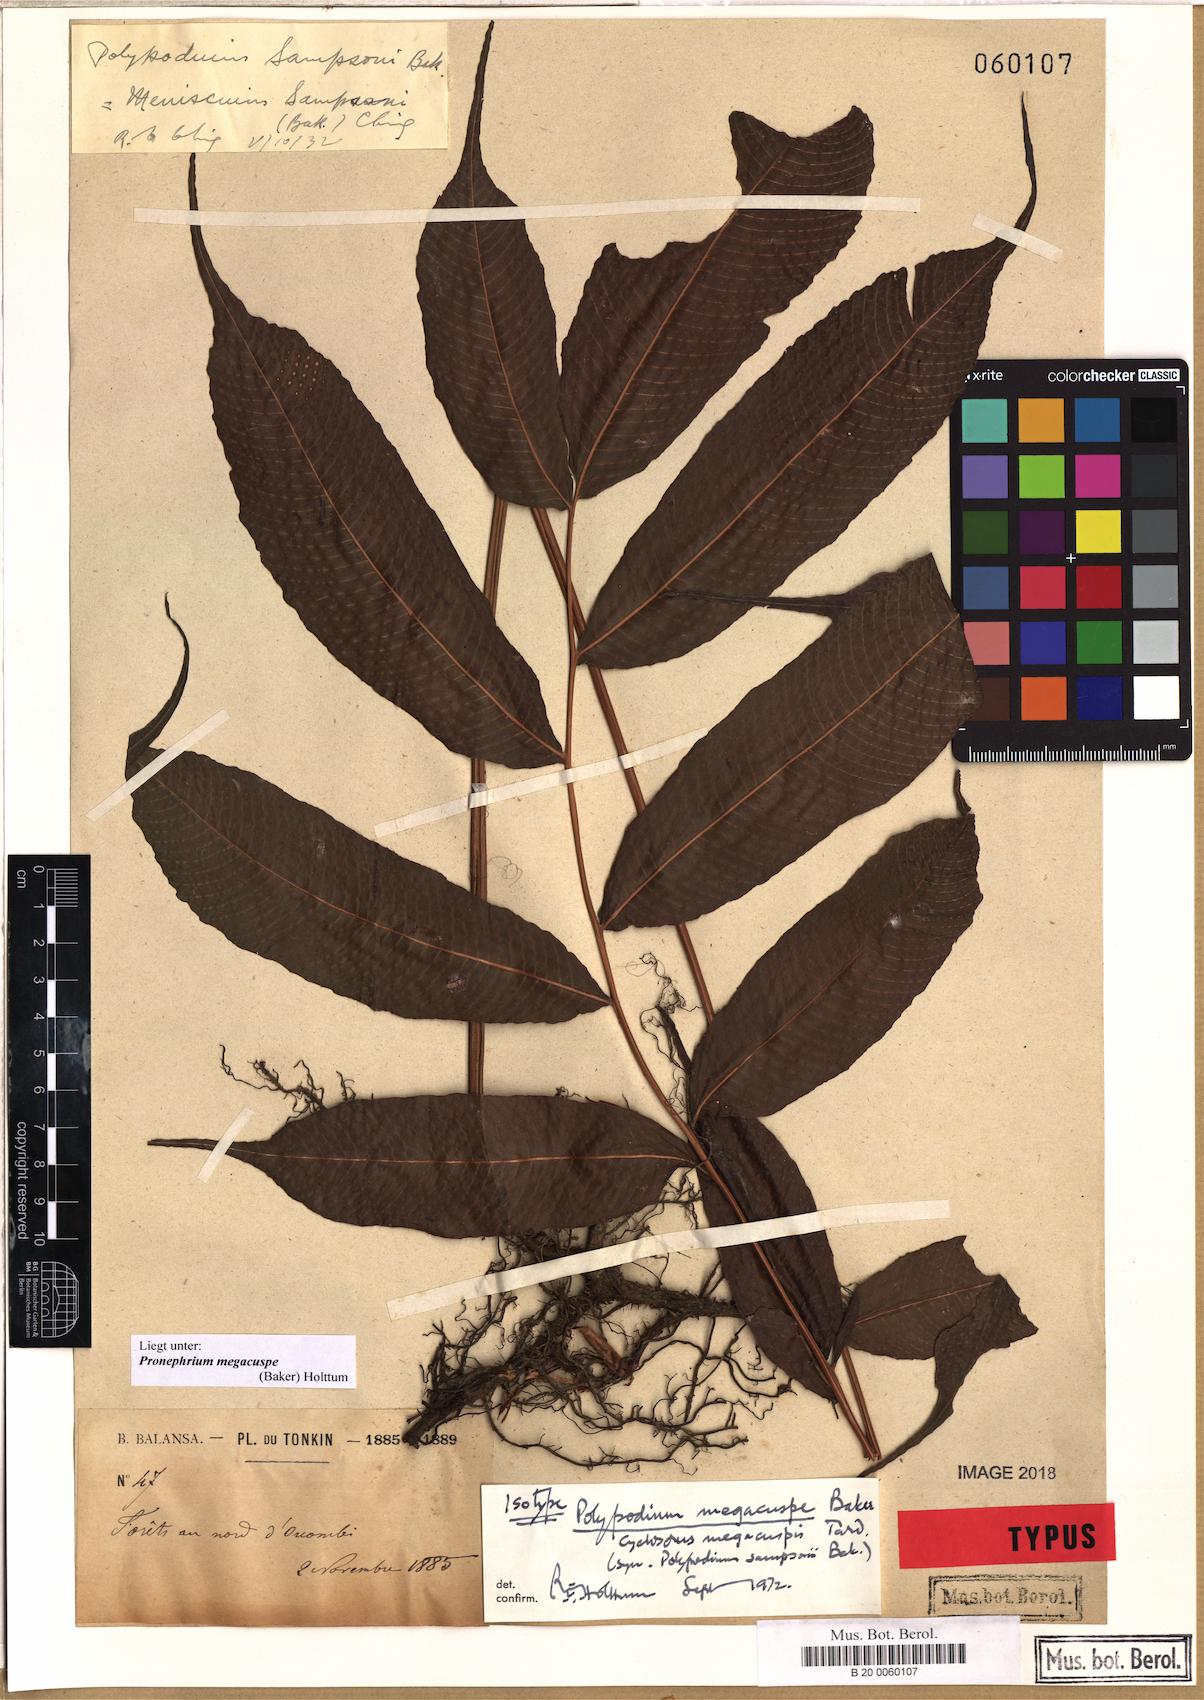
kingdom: Plantae
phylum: Tracheophyta
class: Polypodiopsida
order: Polypodiales
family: Thelypteridaceae
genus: Grypothrix
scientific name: Grypothrix megacuspis
